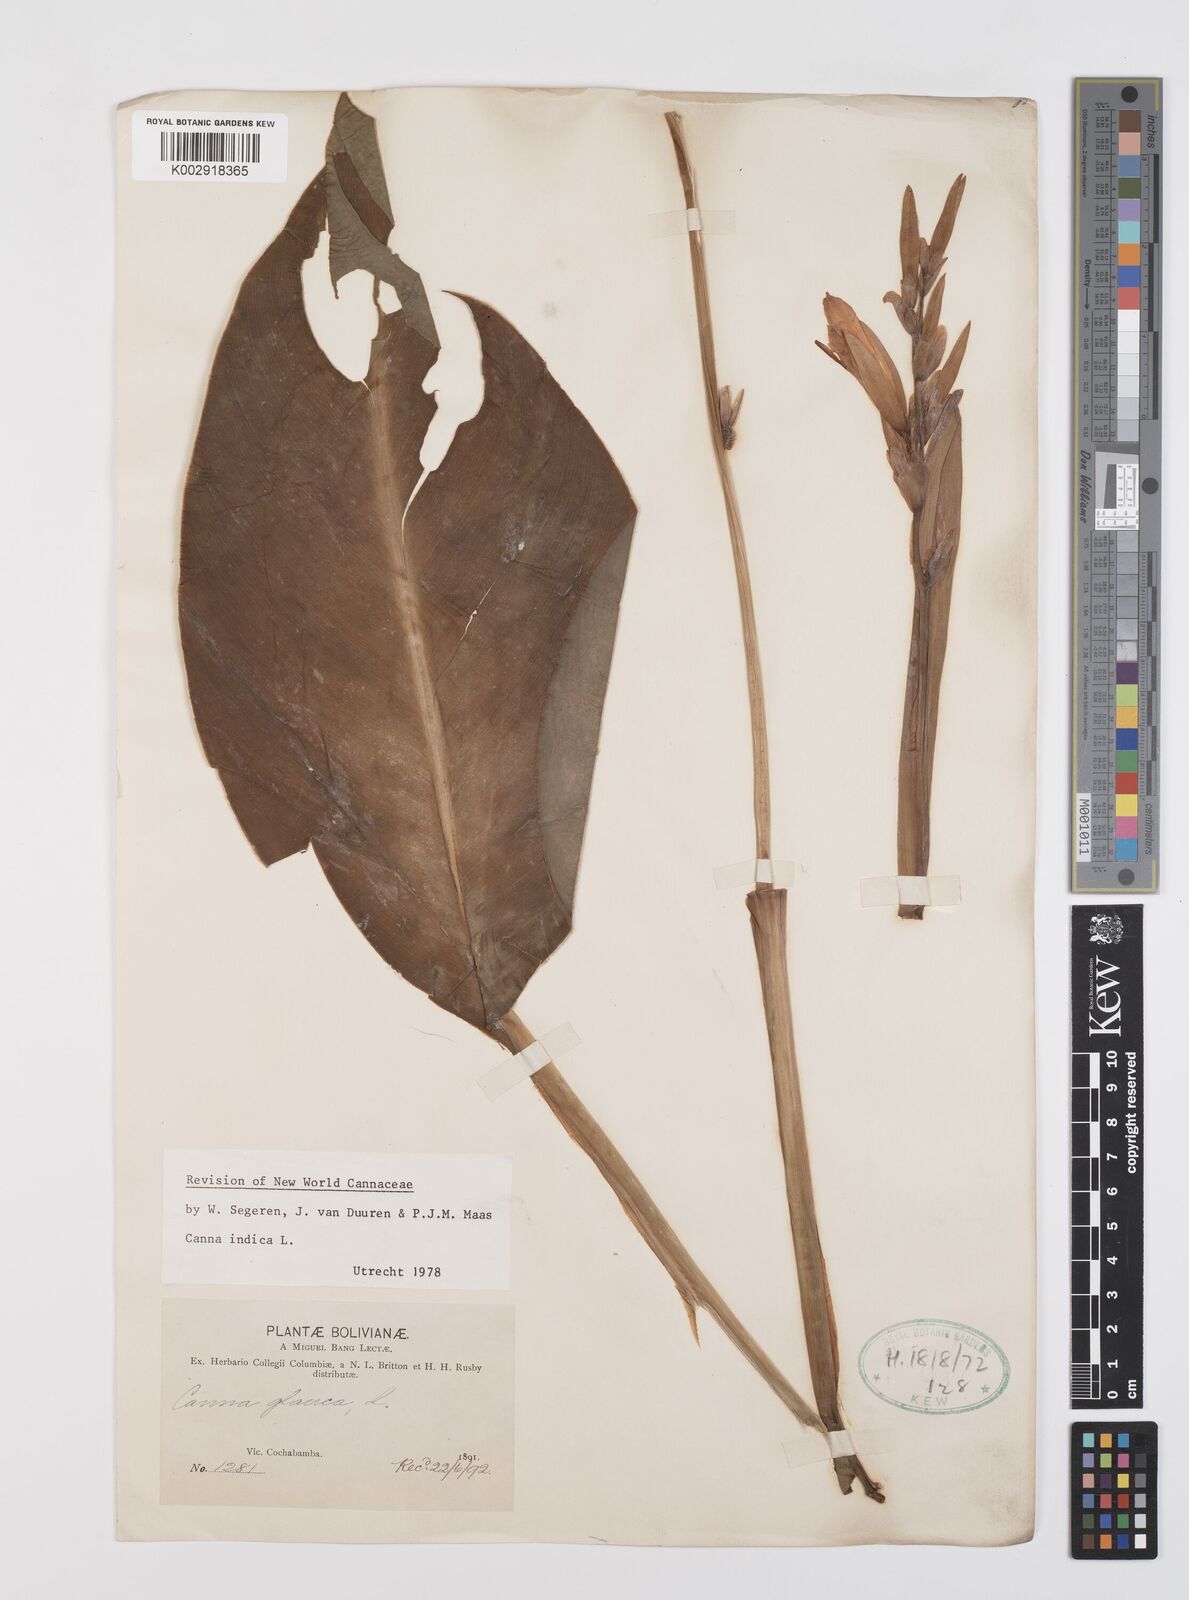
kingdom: Plantae
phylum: Tracheophyta
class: Liliopsida
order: Zingiberales
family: Cannaceae
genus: Canna
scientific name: Canna indica
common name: Indian shot
